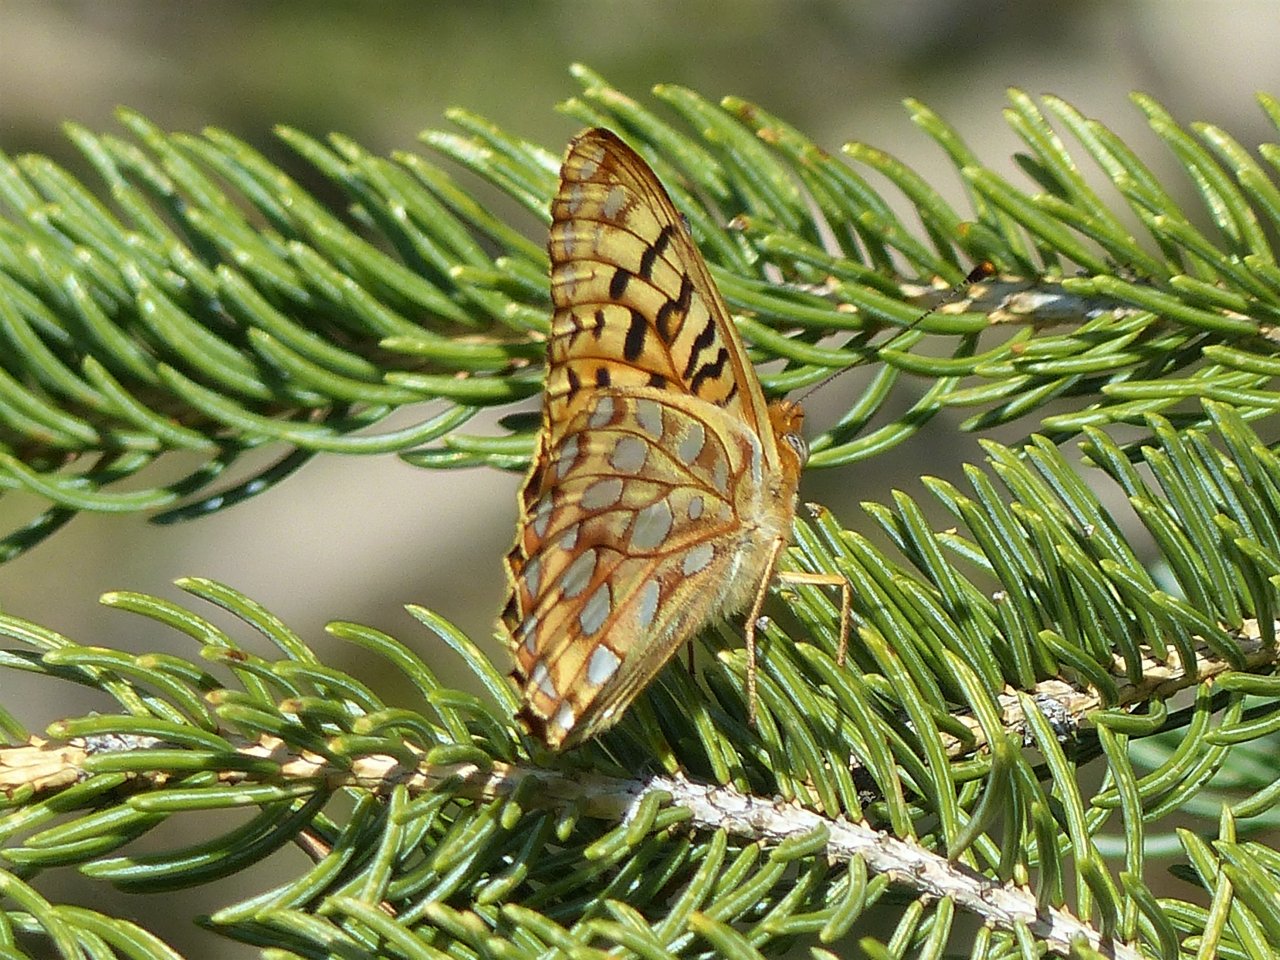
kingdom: Animalia
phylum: Arthropoda
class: Insecta
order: Lepidoptera
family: Nymphalidae
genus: Speyeria
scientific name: Speyeria zerene
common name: Zerene Fritillary
